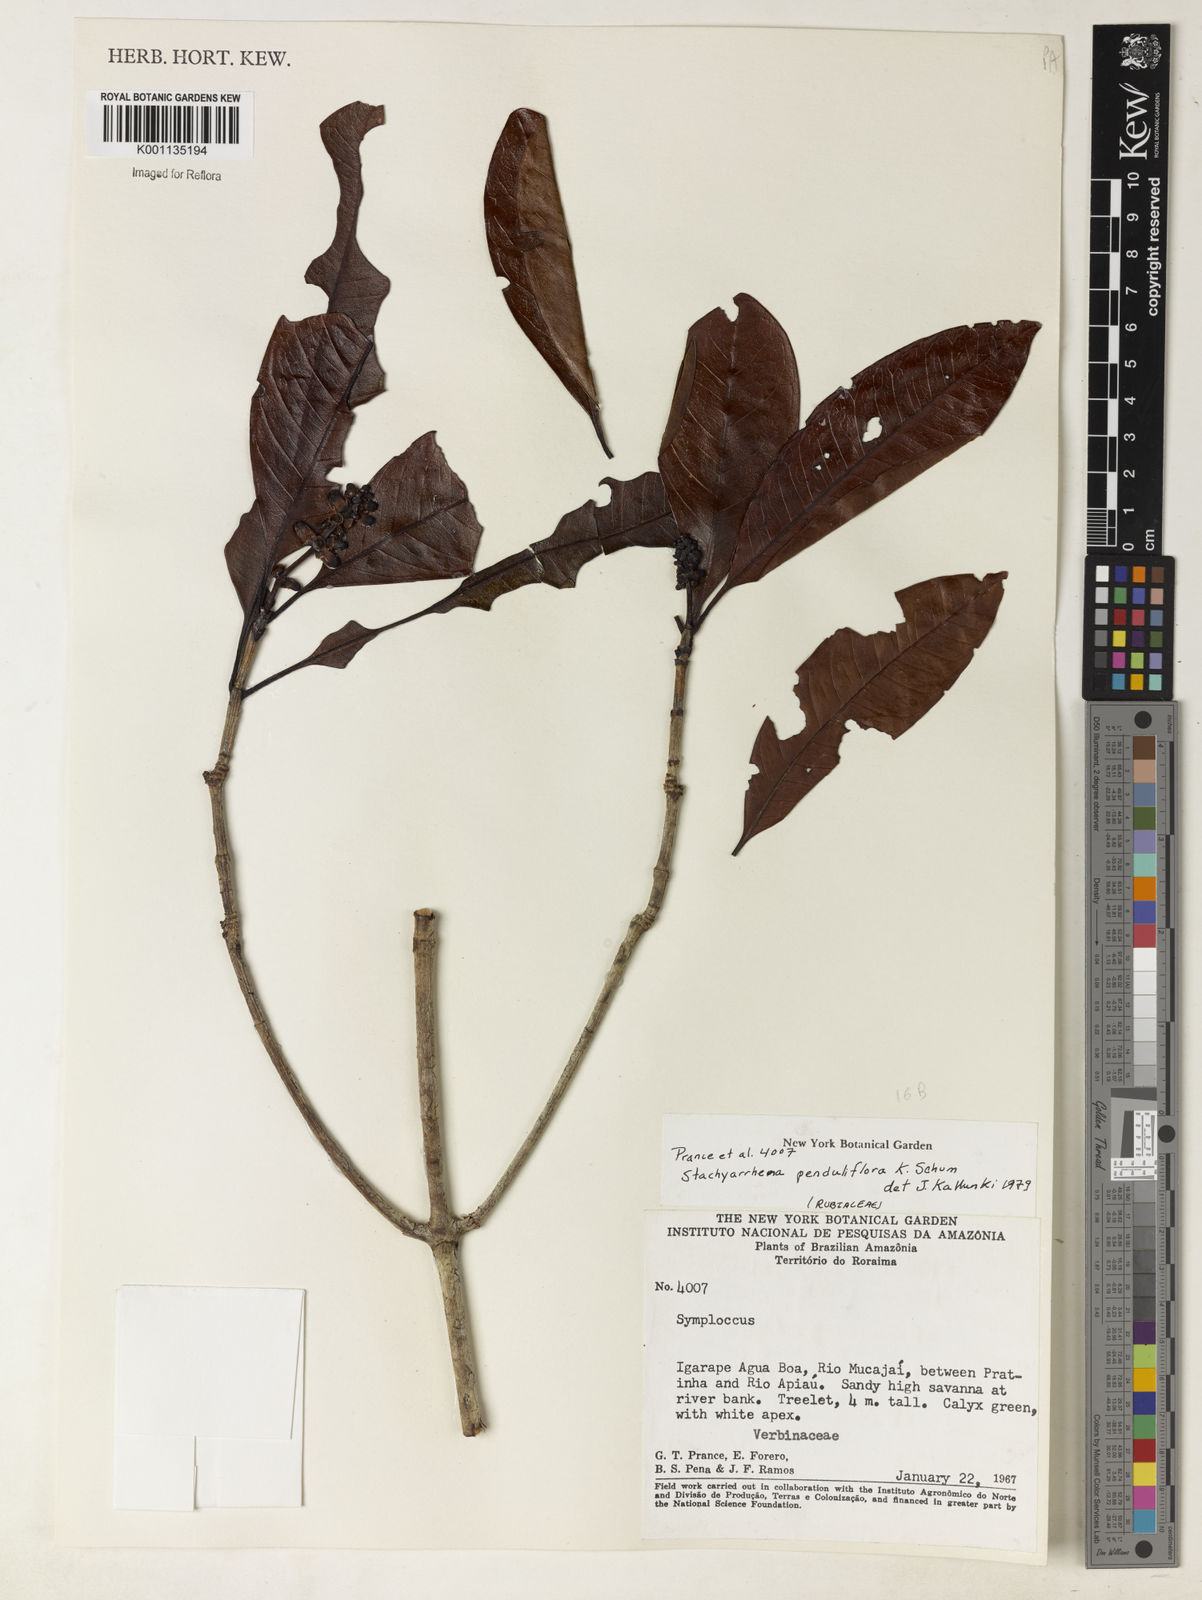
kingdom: Plantae
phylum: Tracheophyta
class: Magnoliopsida
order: Gentianales
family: Rubiaceae
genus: Stachyarrhena
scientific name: Stachyarrhena penduliflora
